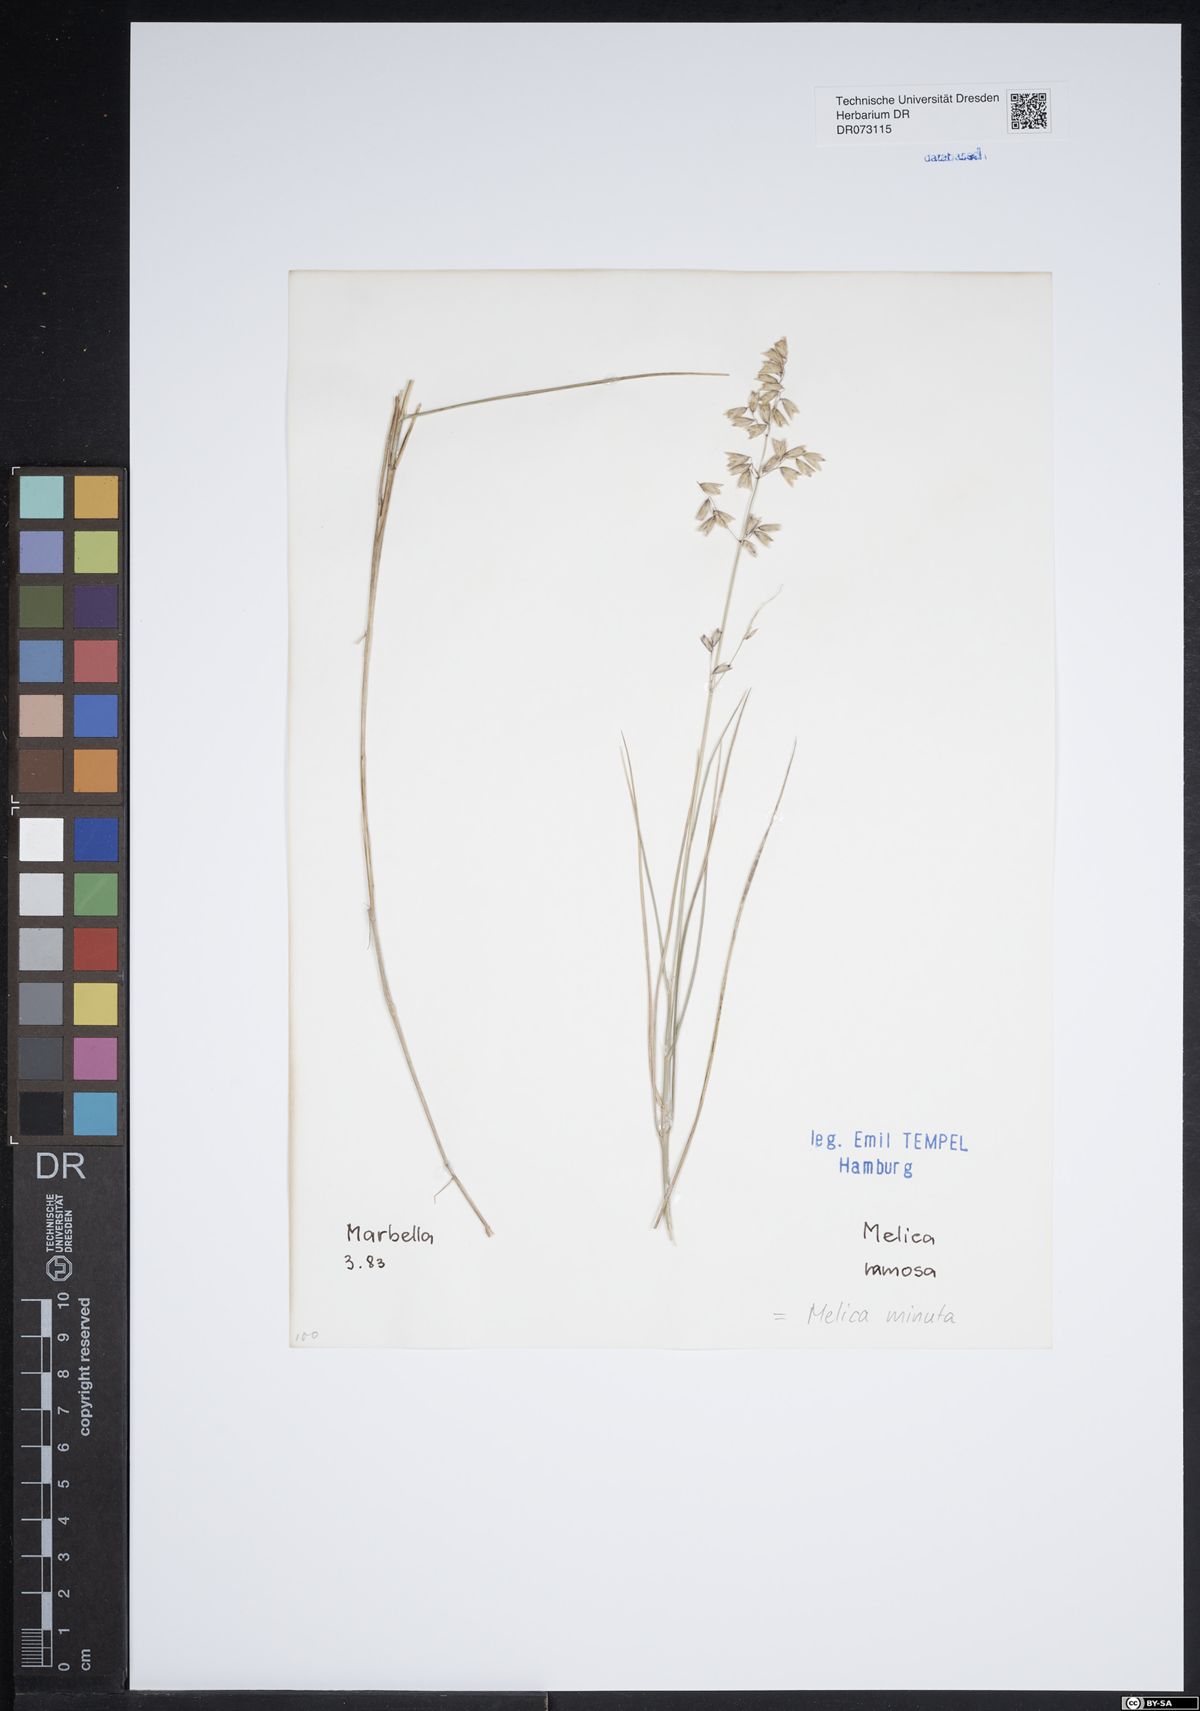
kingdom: Plantae
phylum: Tracheophyta
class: Liliopsida
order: Poales
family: Poaceae
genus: Melica
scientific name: Melica minuta
